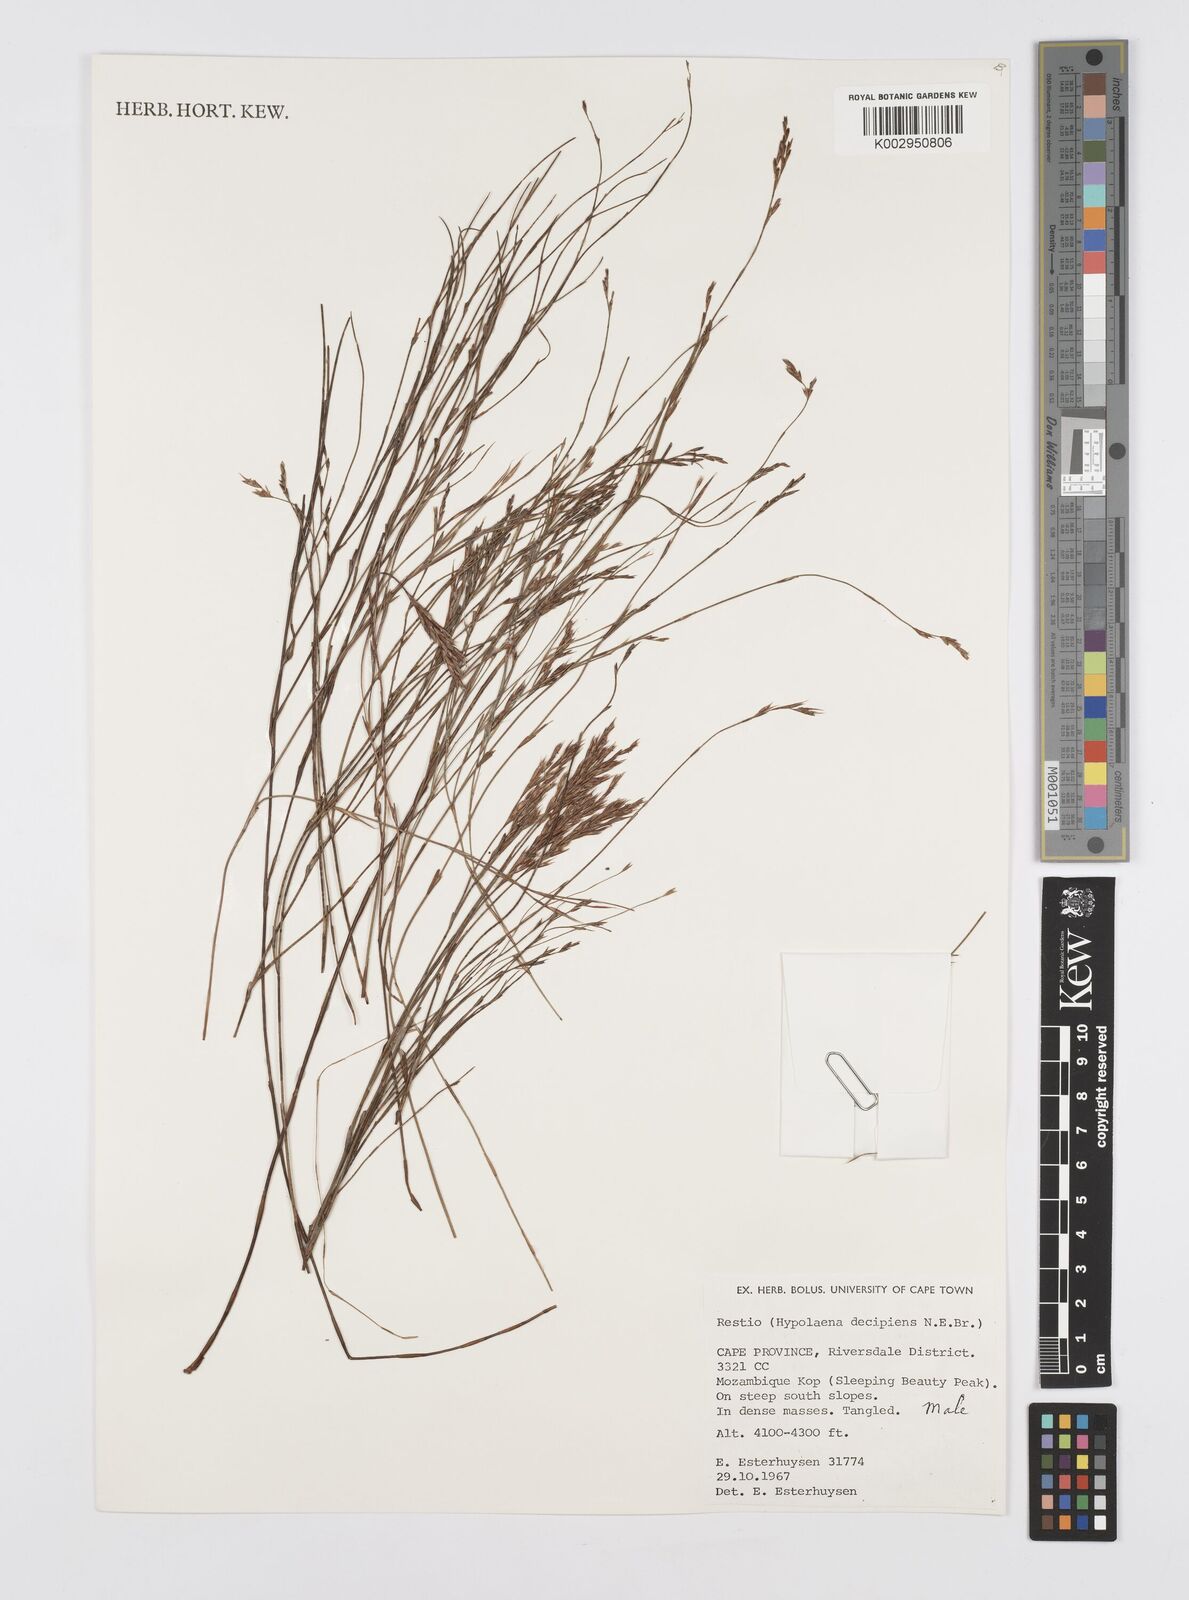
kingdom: Plantae
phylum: Tracheophyta
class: Liliopsida
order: Poales
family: Restionaceae
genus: Restio
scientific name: Restio decipiens
